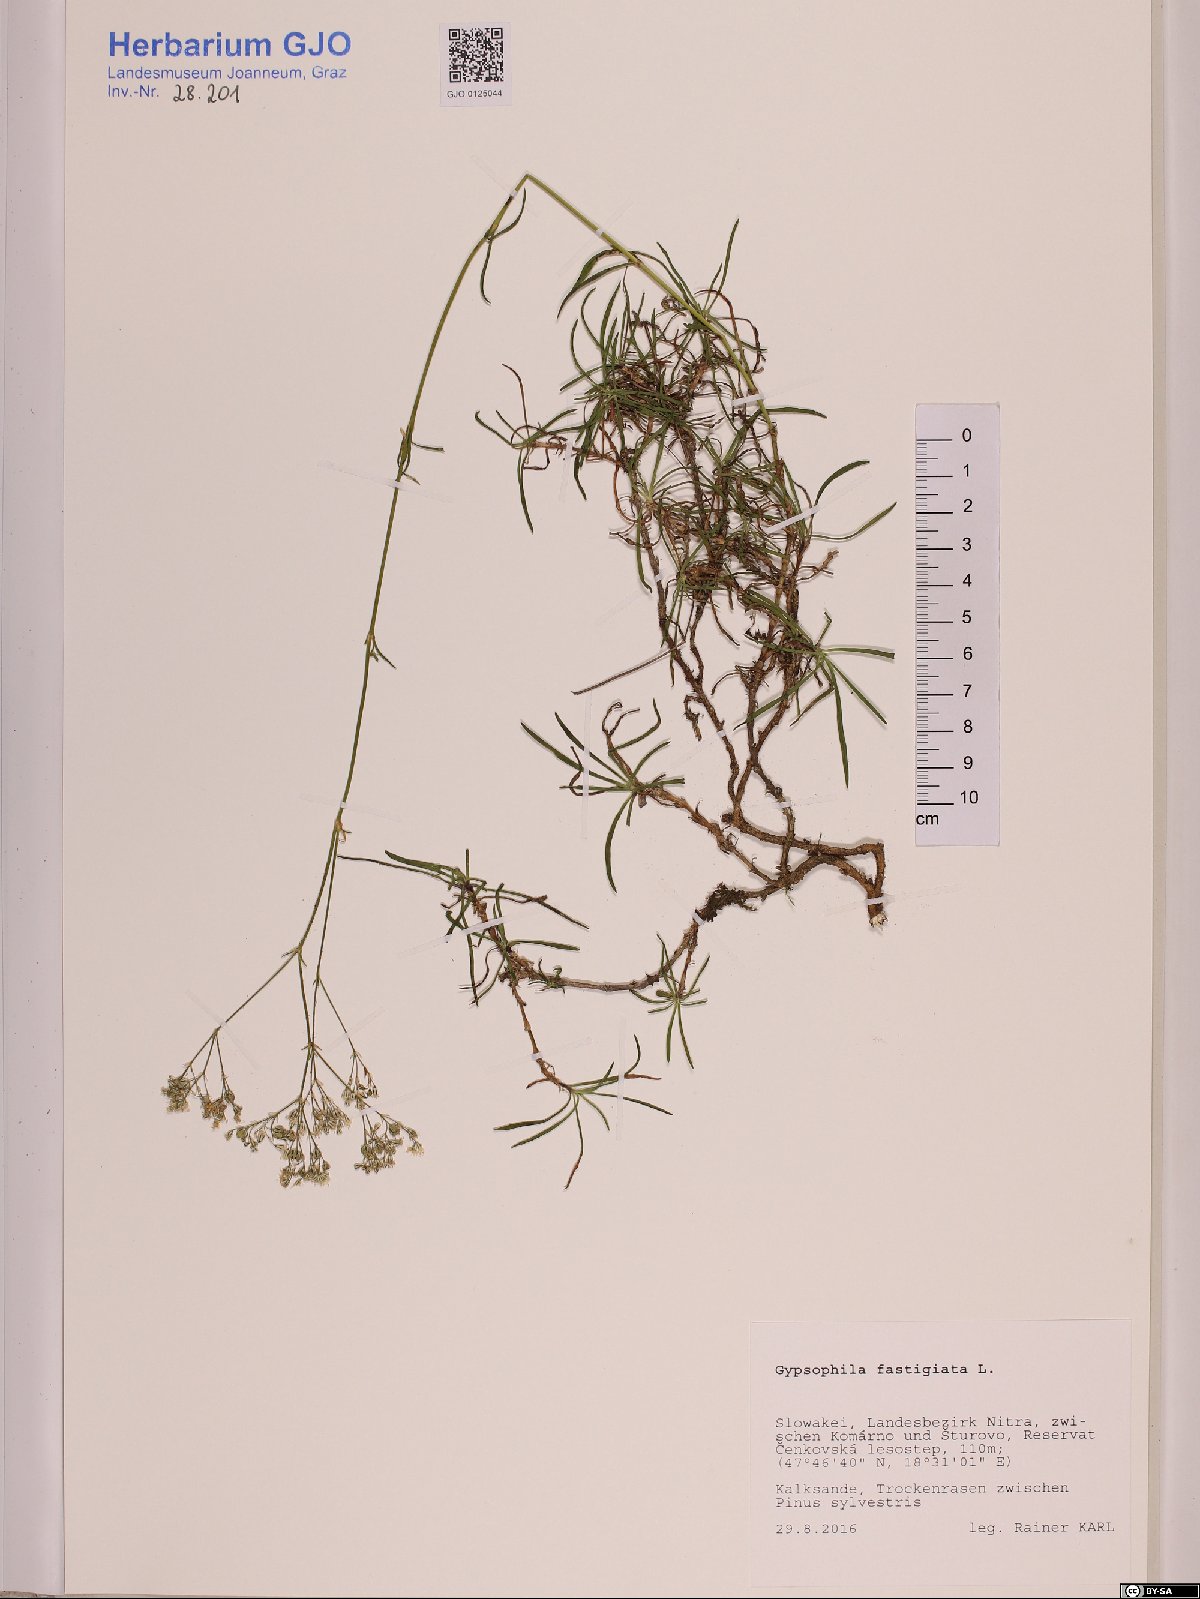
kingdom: Plantae
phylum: Tracheophyta
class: Magnoliopsida
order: Caryophyllales
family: Caryophyllaceae
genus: Gypsophila
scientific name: Gypsophila fastigiata
